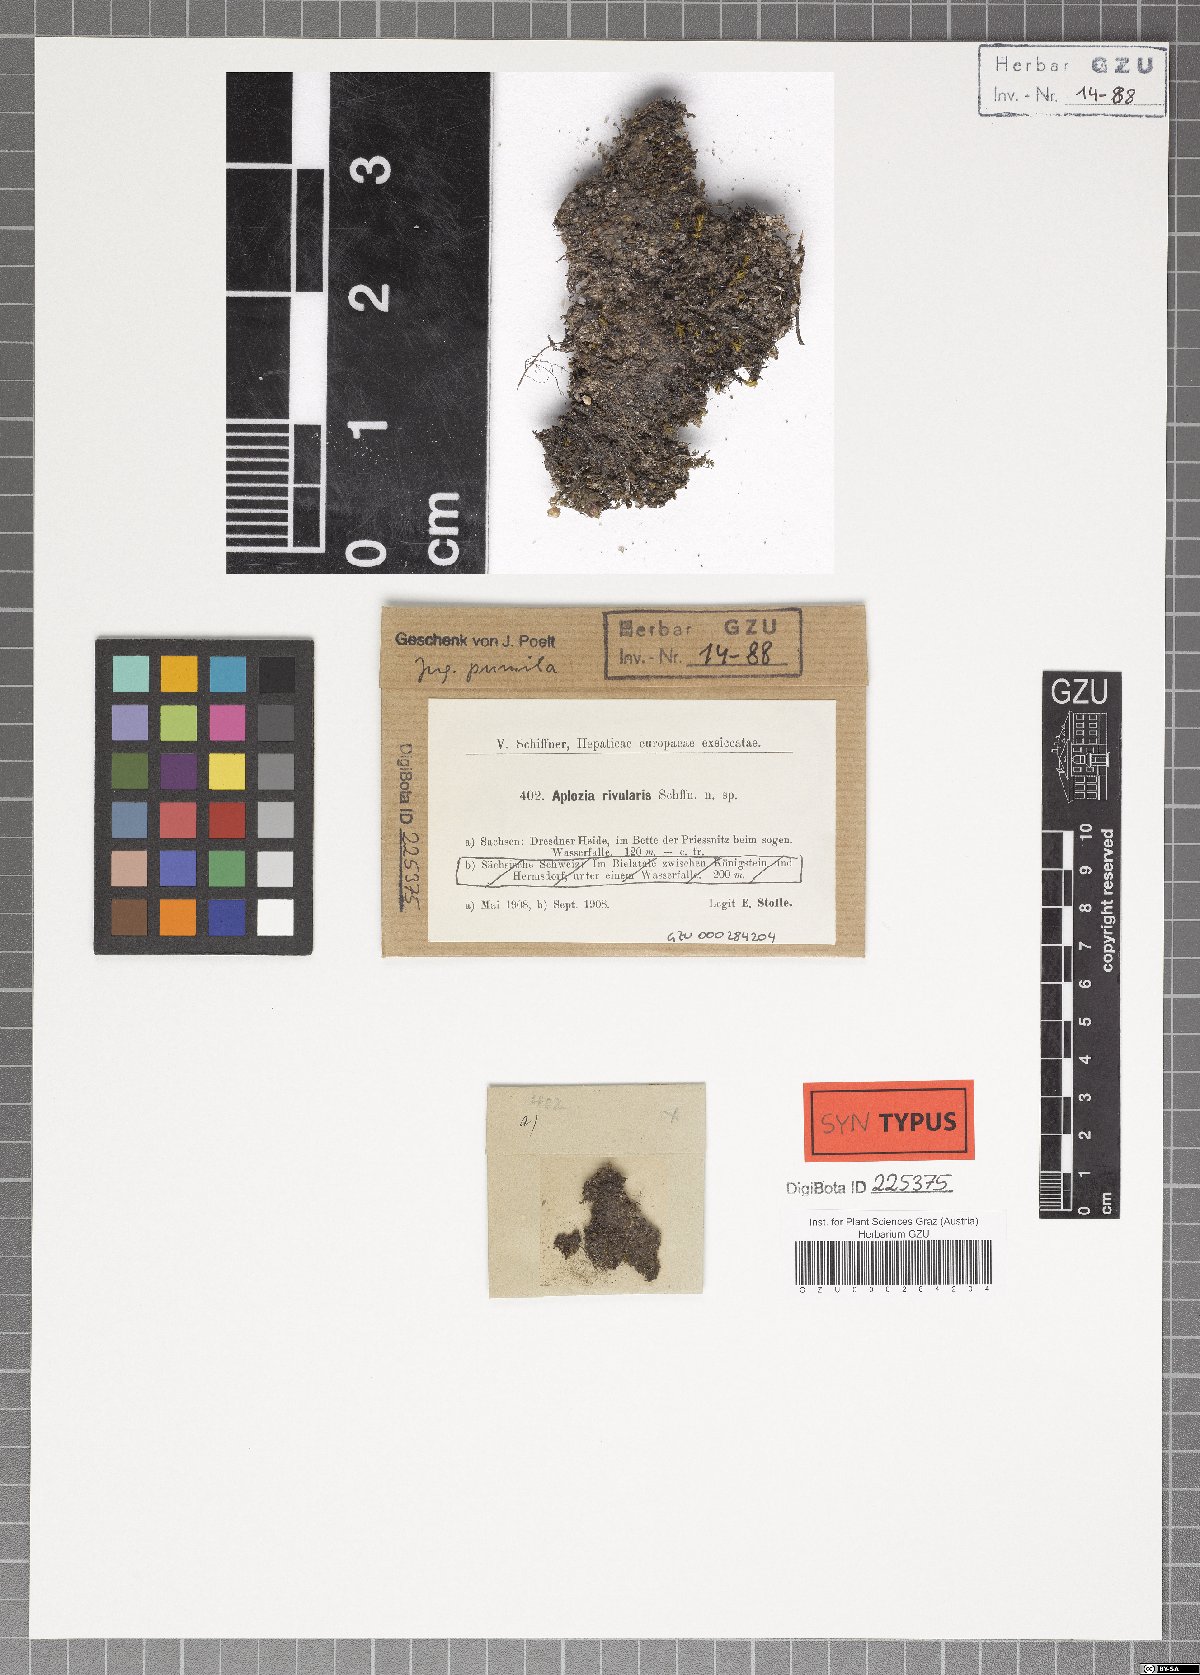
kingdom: Plantae
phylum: Marchantiophyta
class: Jungermanniopsida
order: Jungermanniales
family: Jungermanniaceae
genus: Jungermannia
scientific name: Jungermannia pumila
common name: Dwarf flapwort
